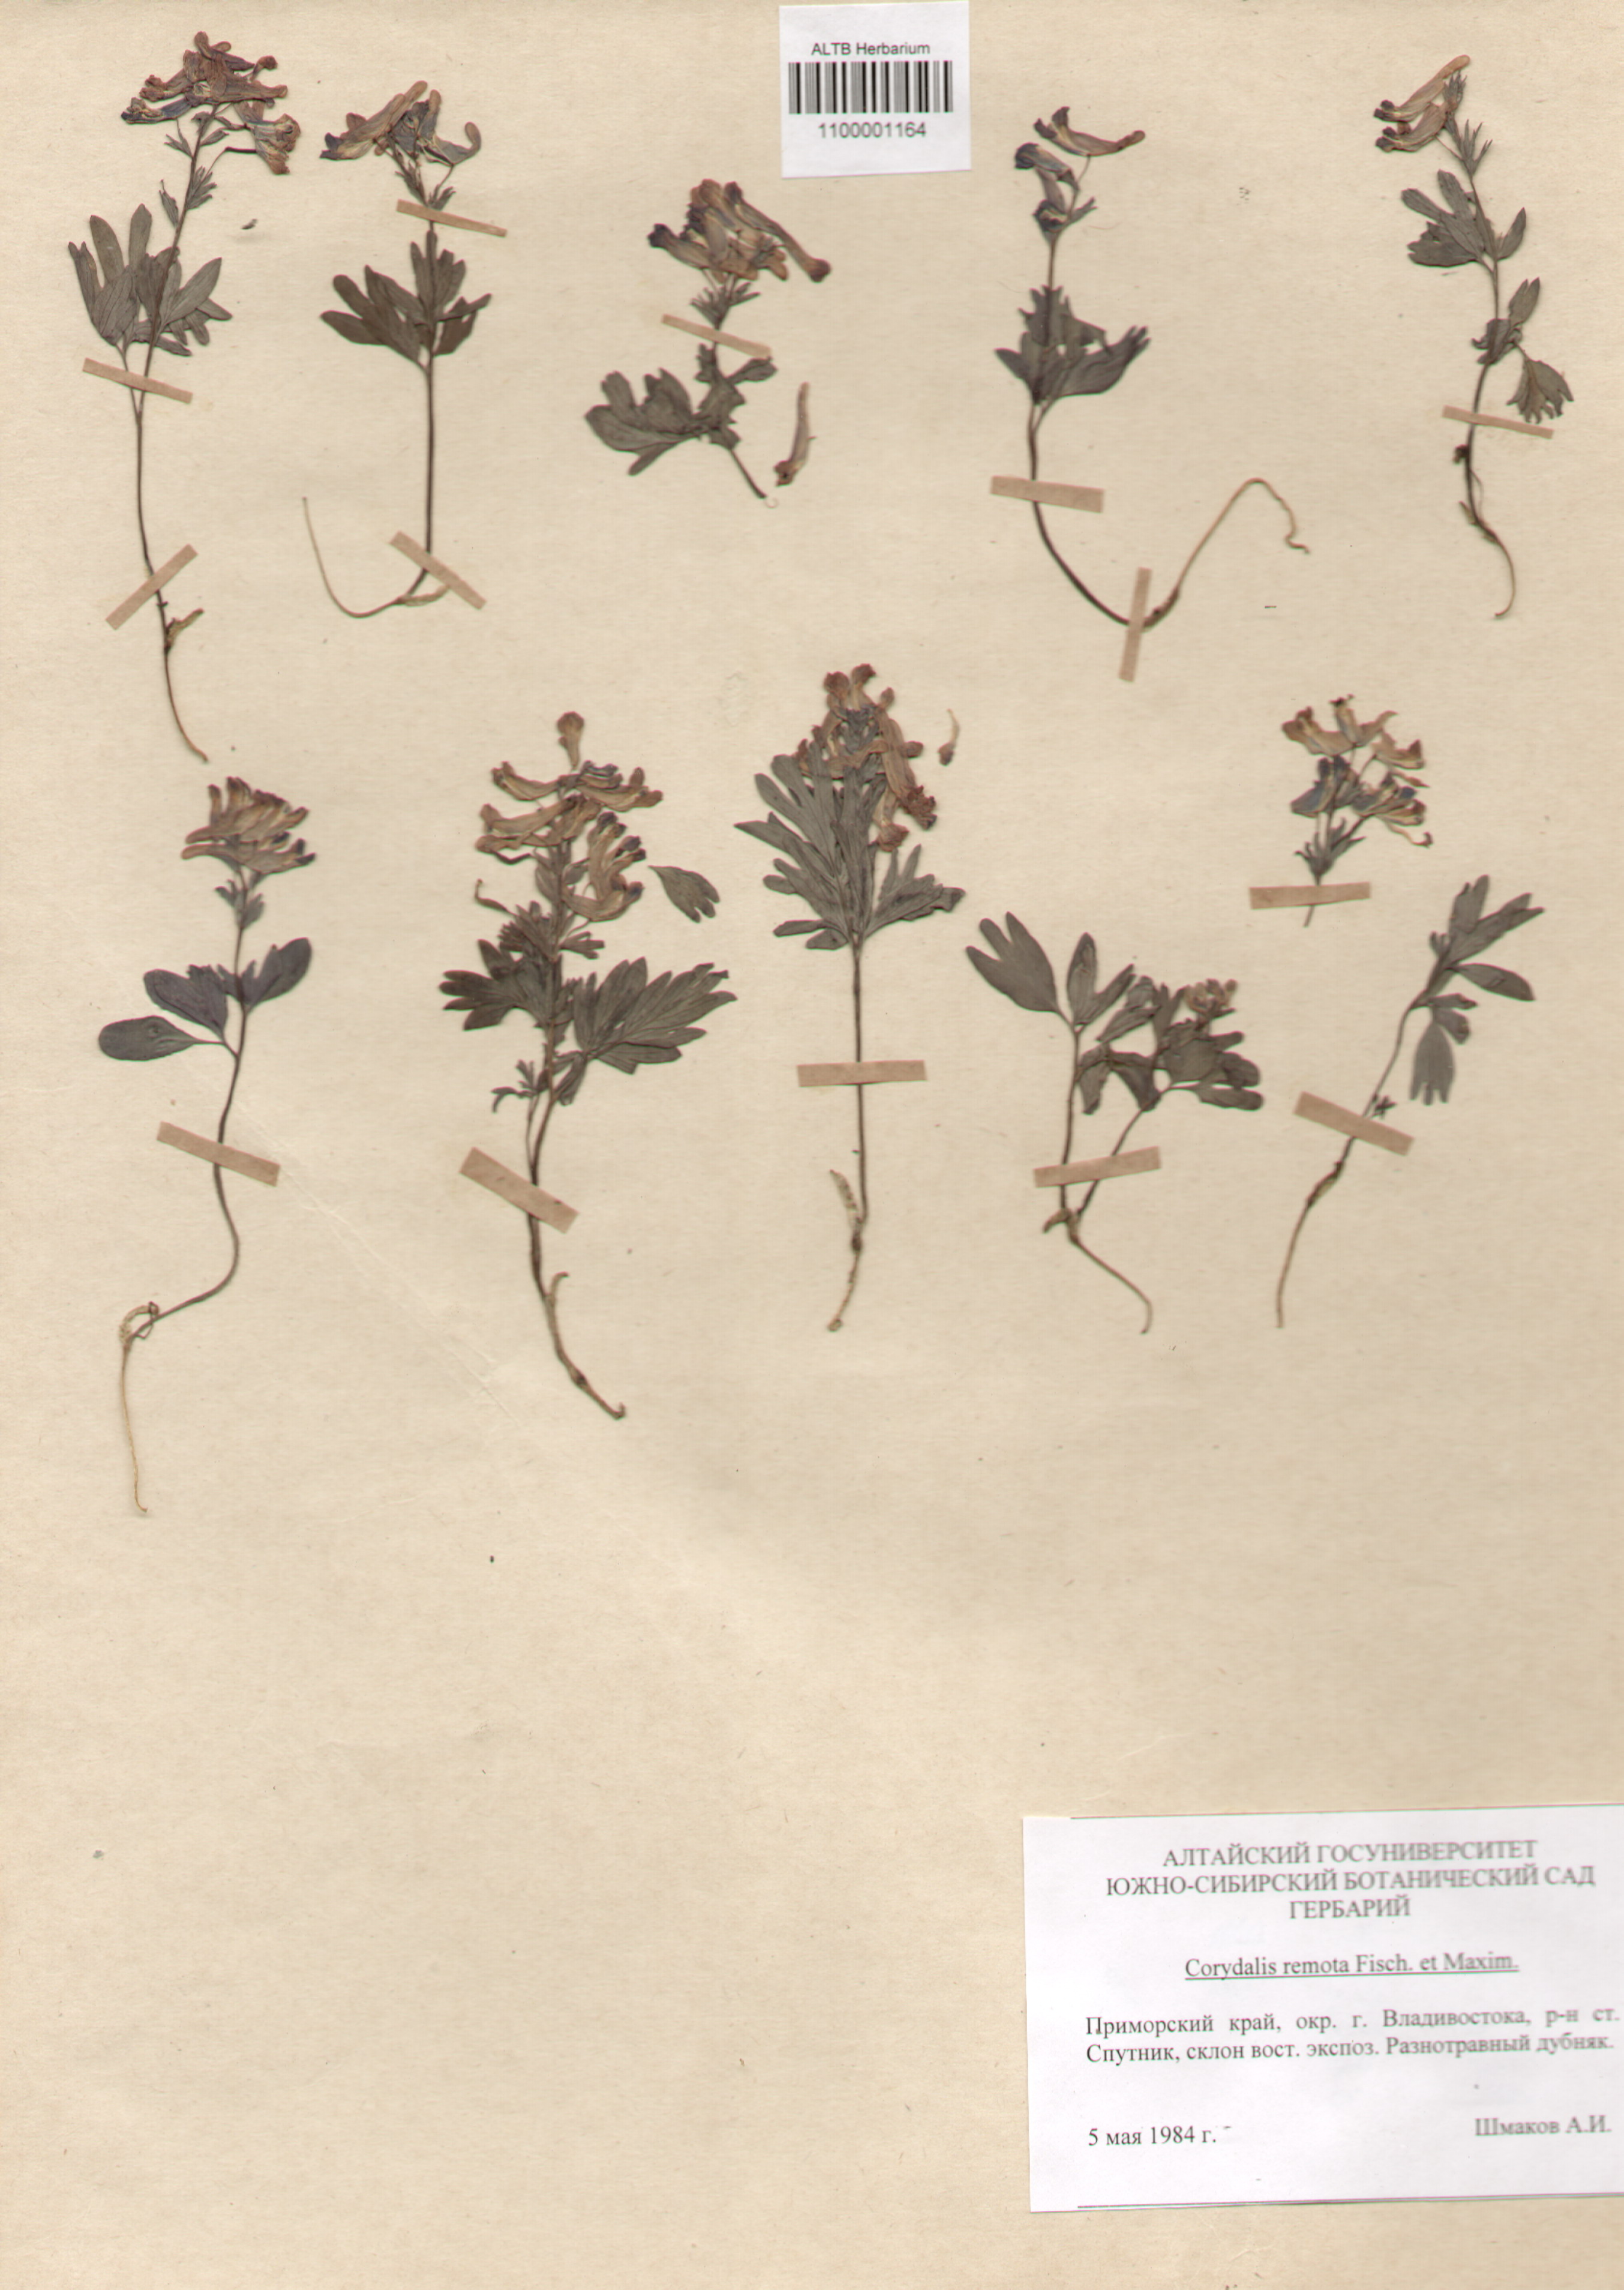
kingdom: Plantae
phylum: Tracheophyta
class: Magnoliopsida
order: Ranunculales
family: Papaveraceae
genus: Corydalis
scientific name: Corydalis turtschaninovii
